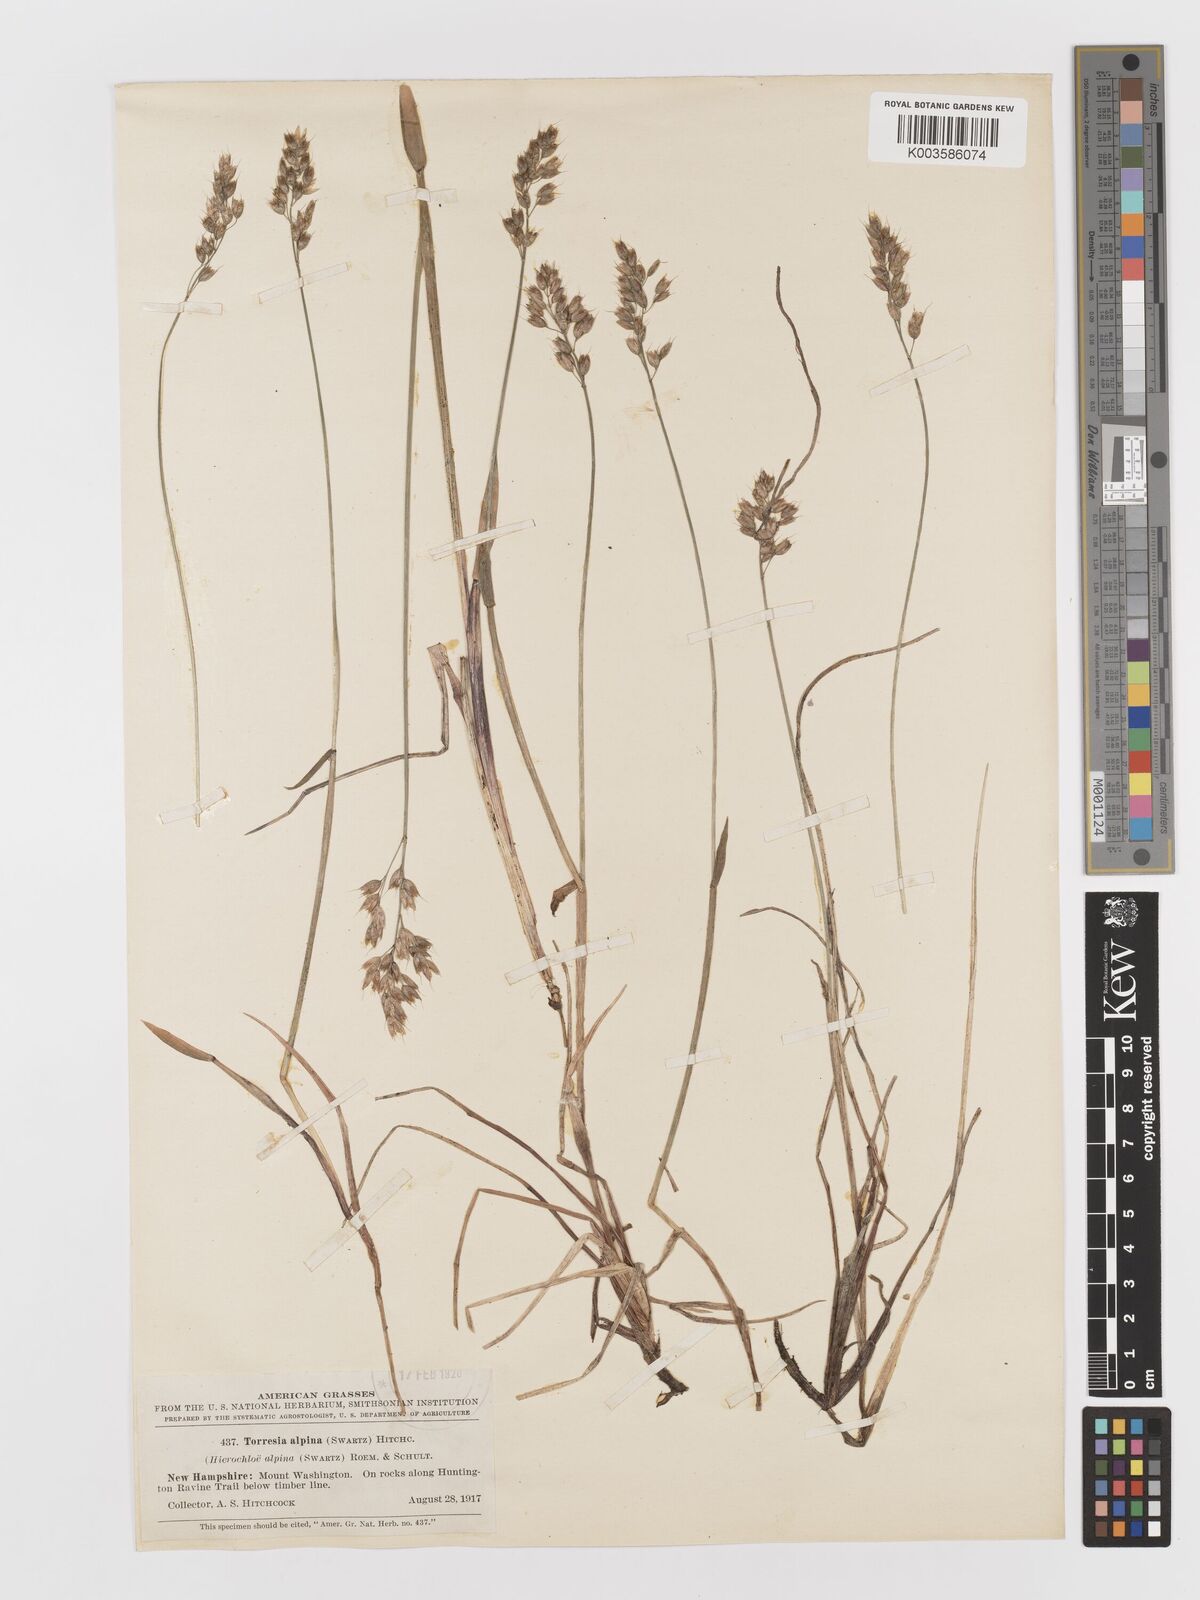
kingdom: Plantae
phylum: Tracheophyta
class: Liliopsida
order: Poales
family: Poaceae
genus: Anthoxanthum
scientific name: Anthoxanthum monticola
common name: Alpine sweetgrass
